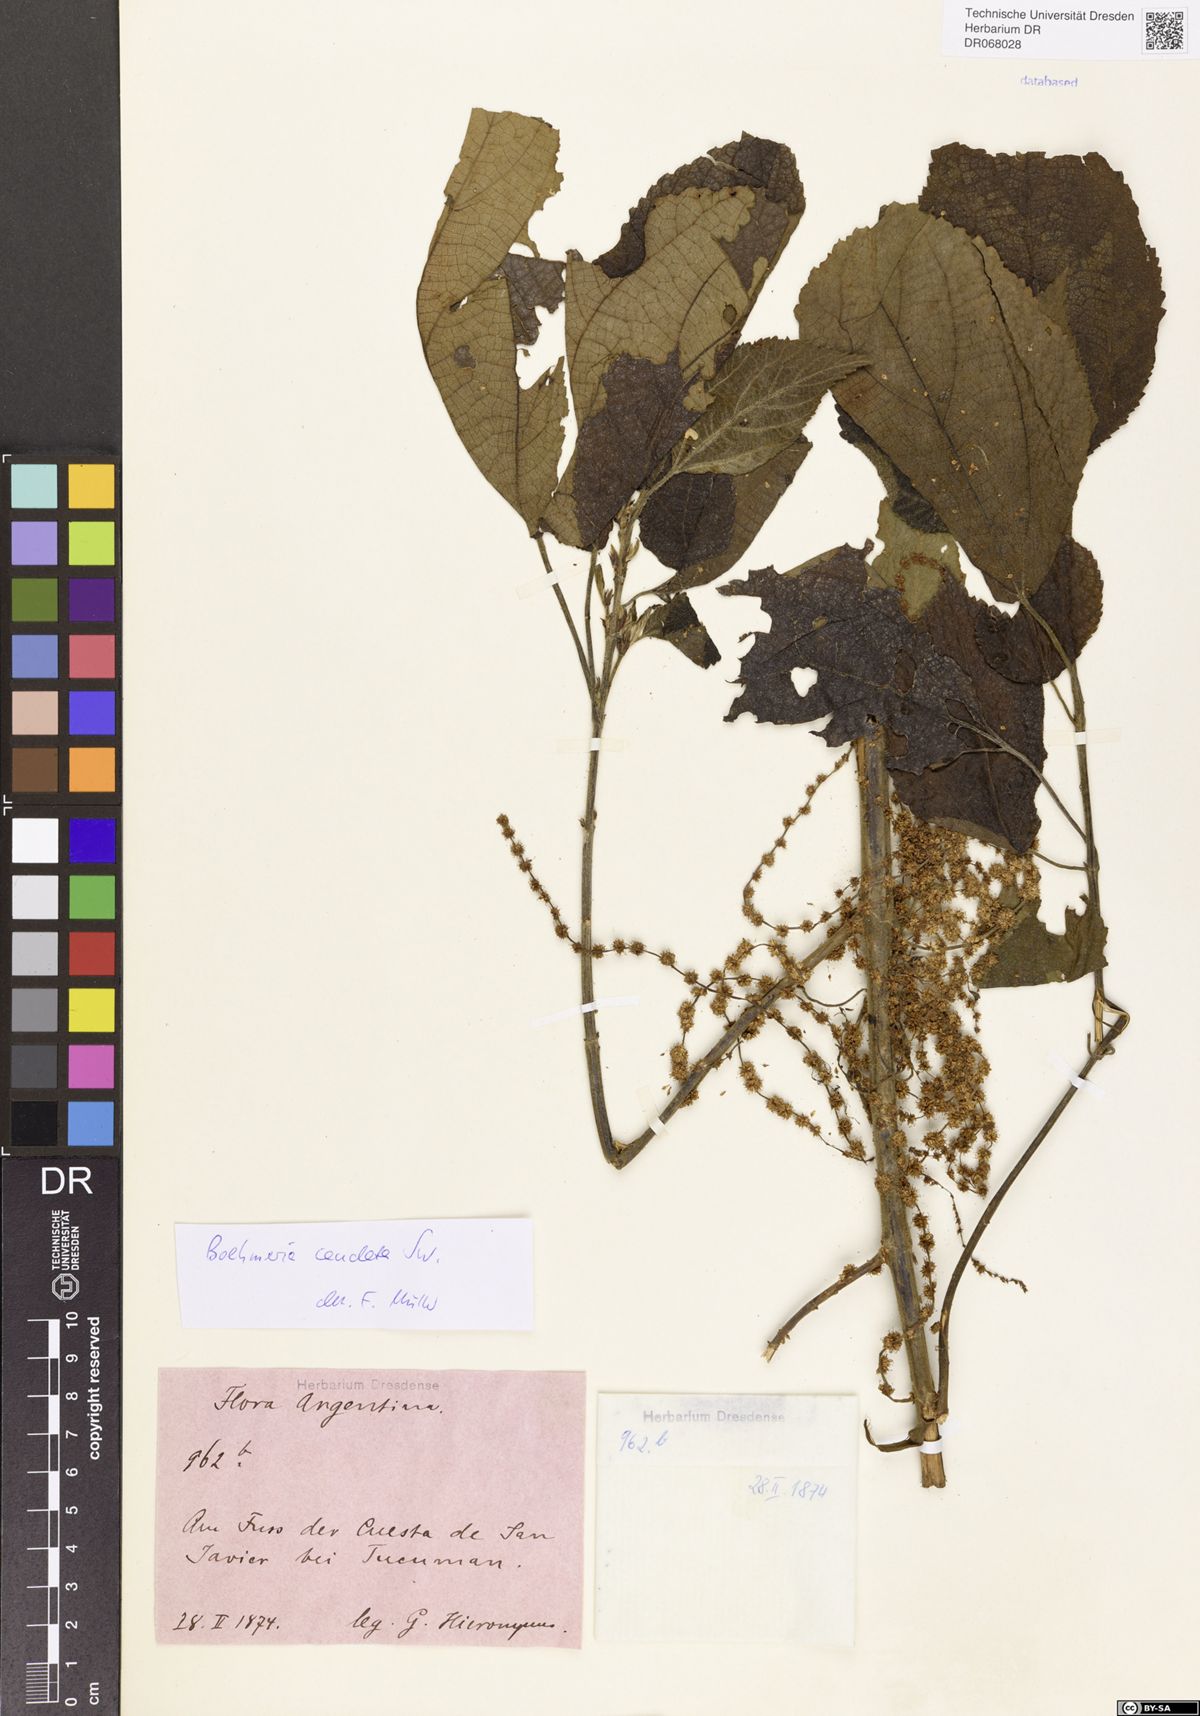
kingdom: Plantae
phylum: Tracheophyta
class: Magnoliopsida
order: Rosales
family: Urticaceae
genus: Boehmeria
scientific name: Boehmeria caudata
